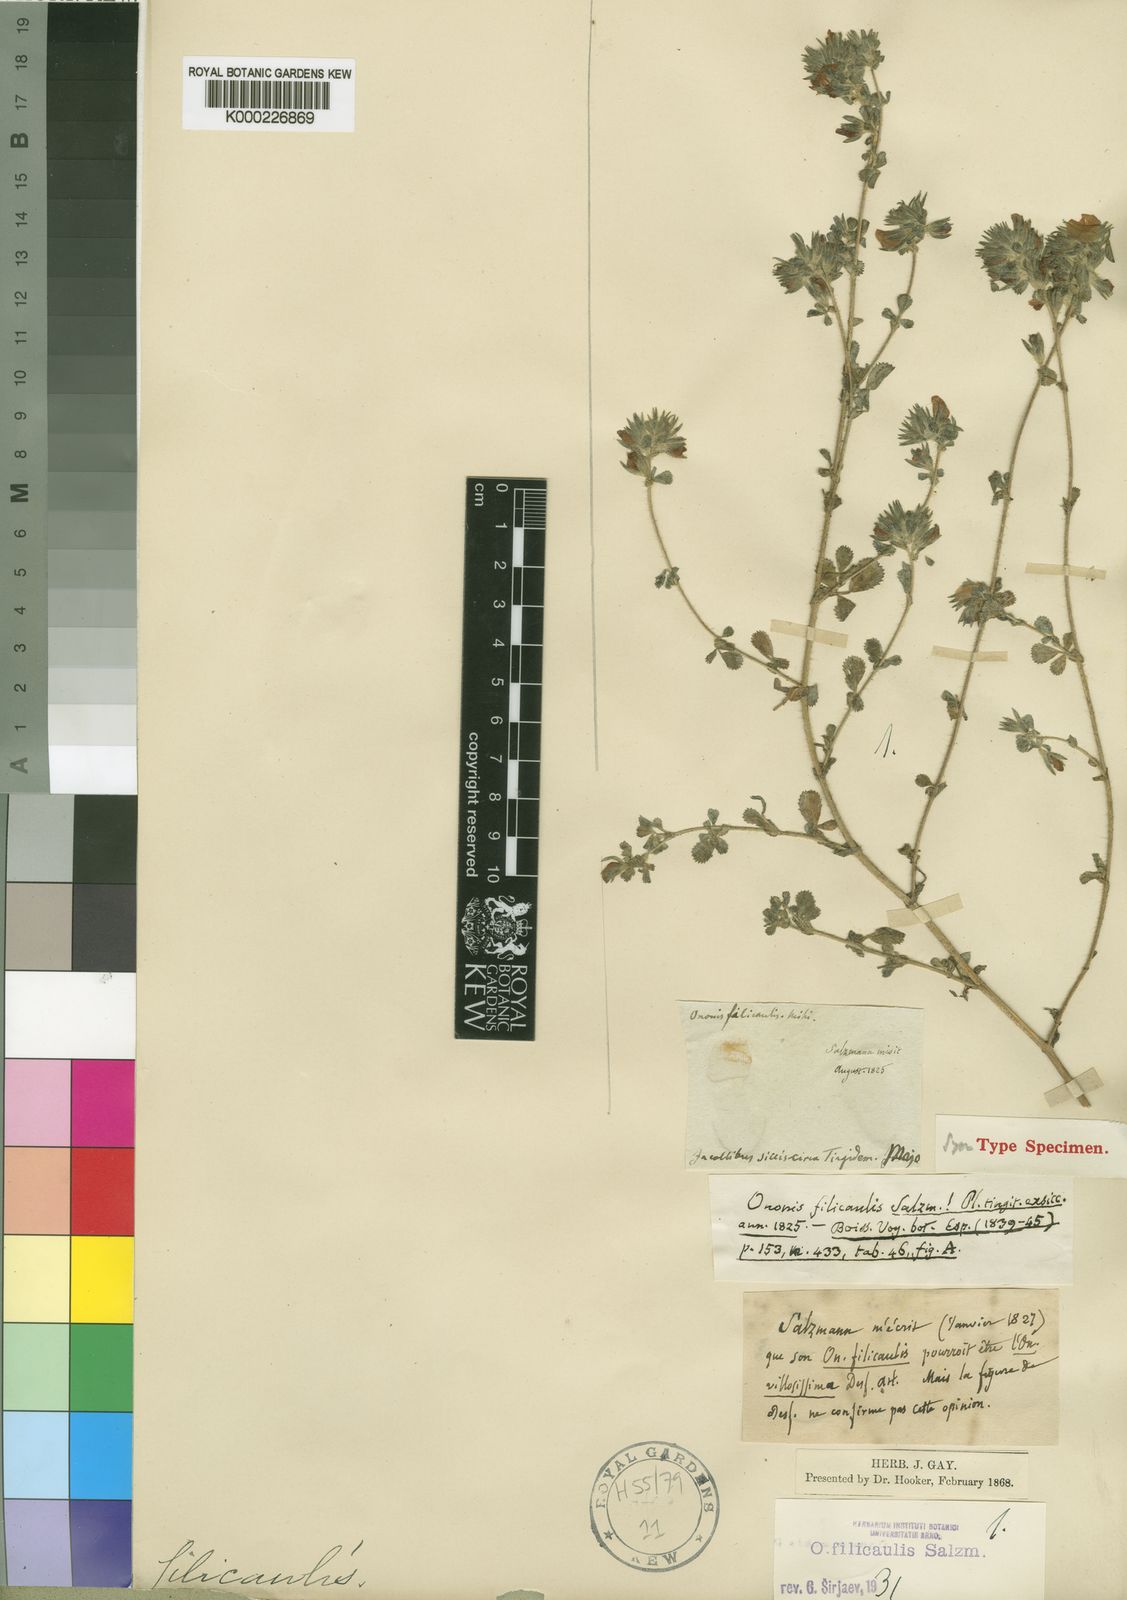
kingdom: Plantae
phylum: Tracheophyta
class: Magnoliopsida
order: Fabales
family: Fabaceae
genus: Ononis
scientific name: Ononis
